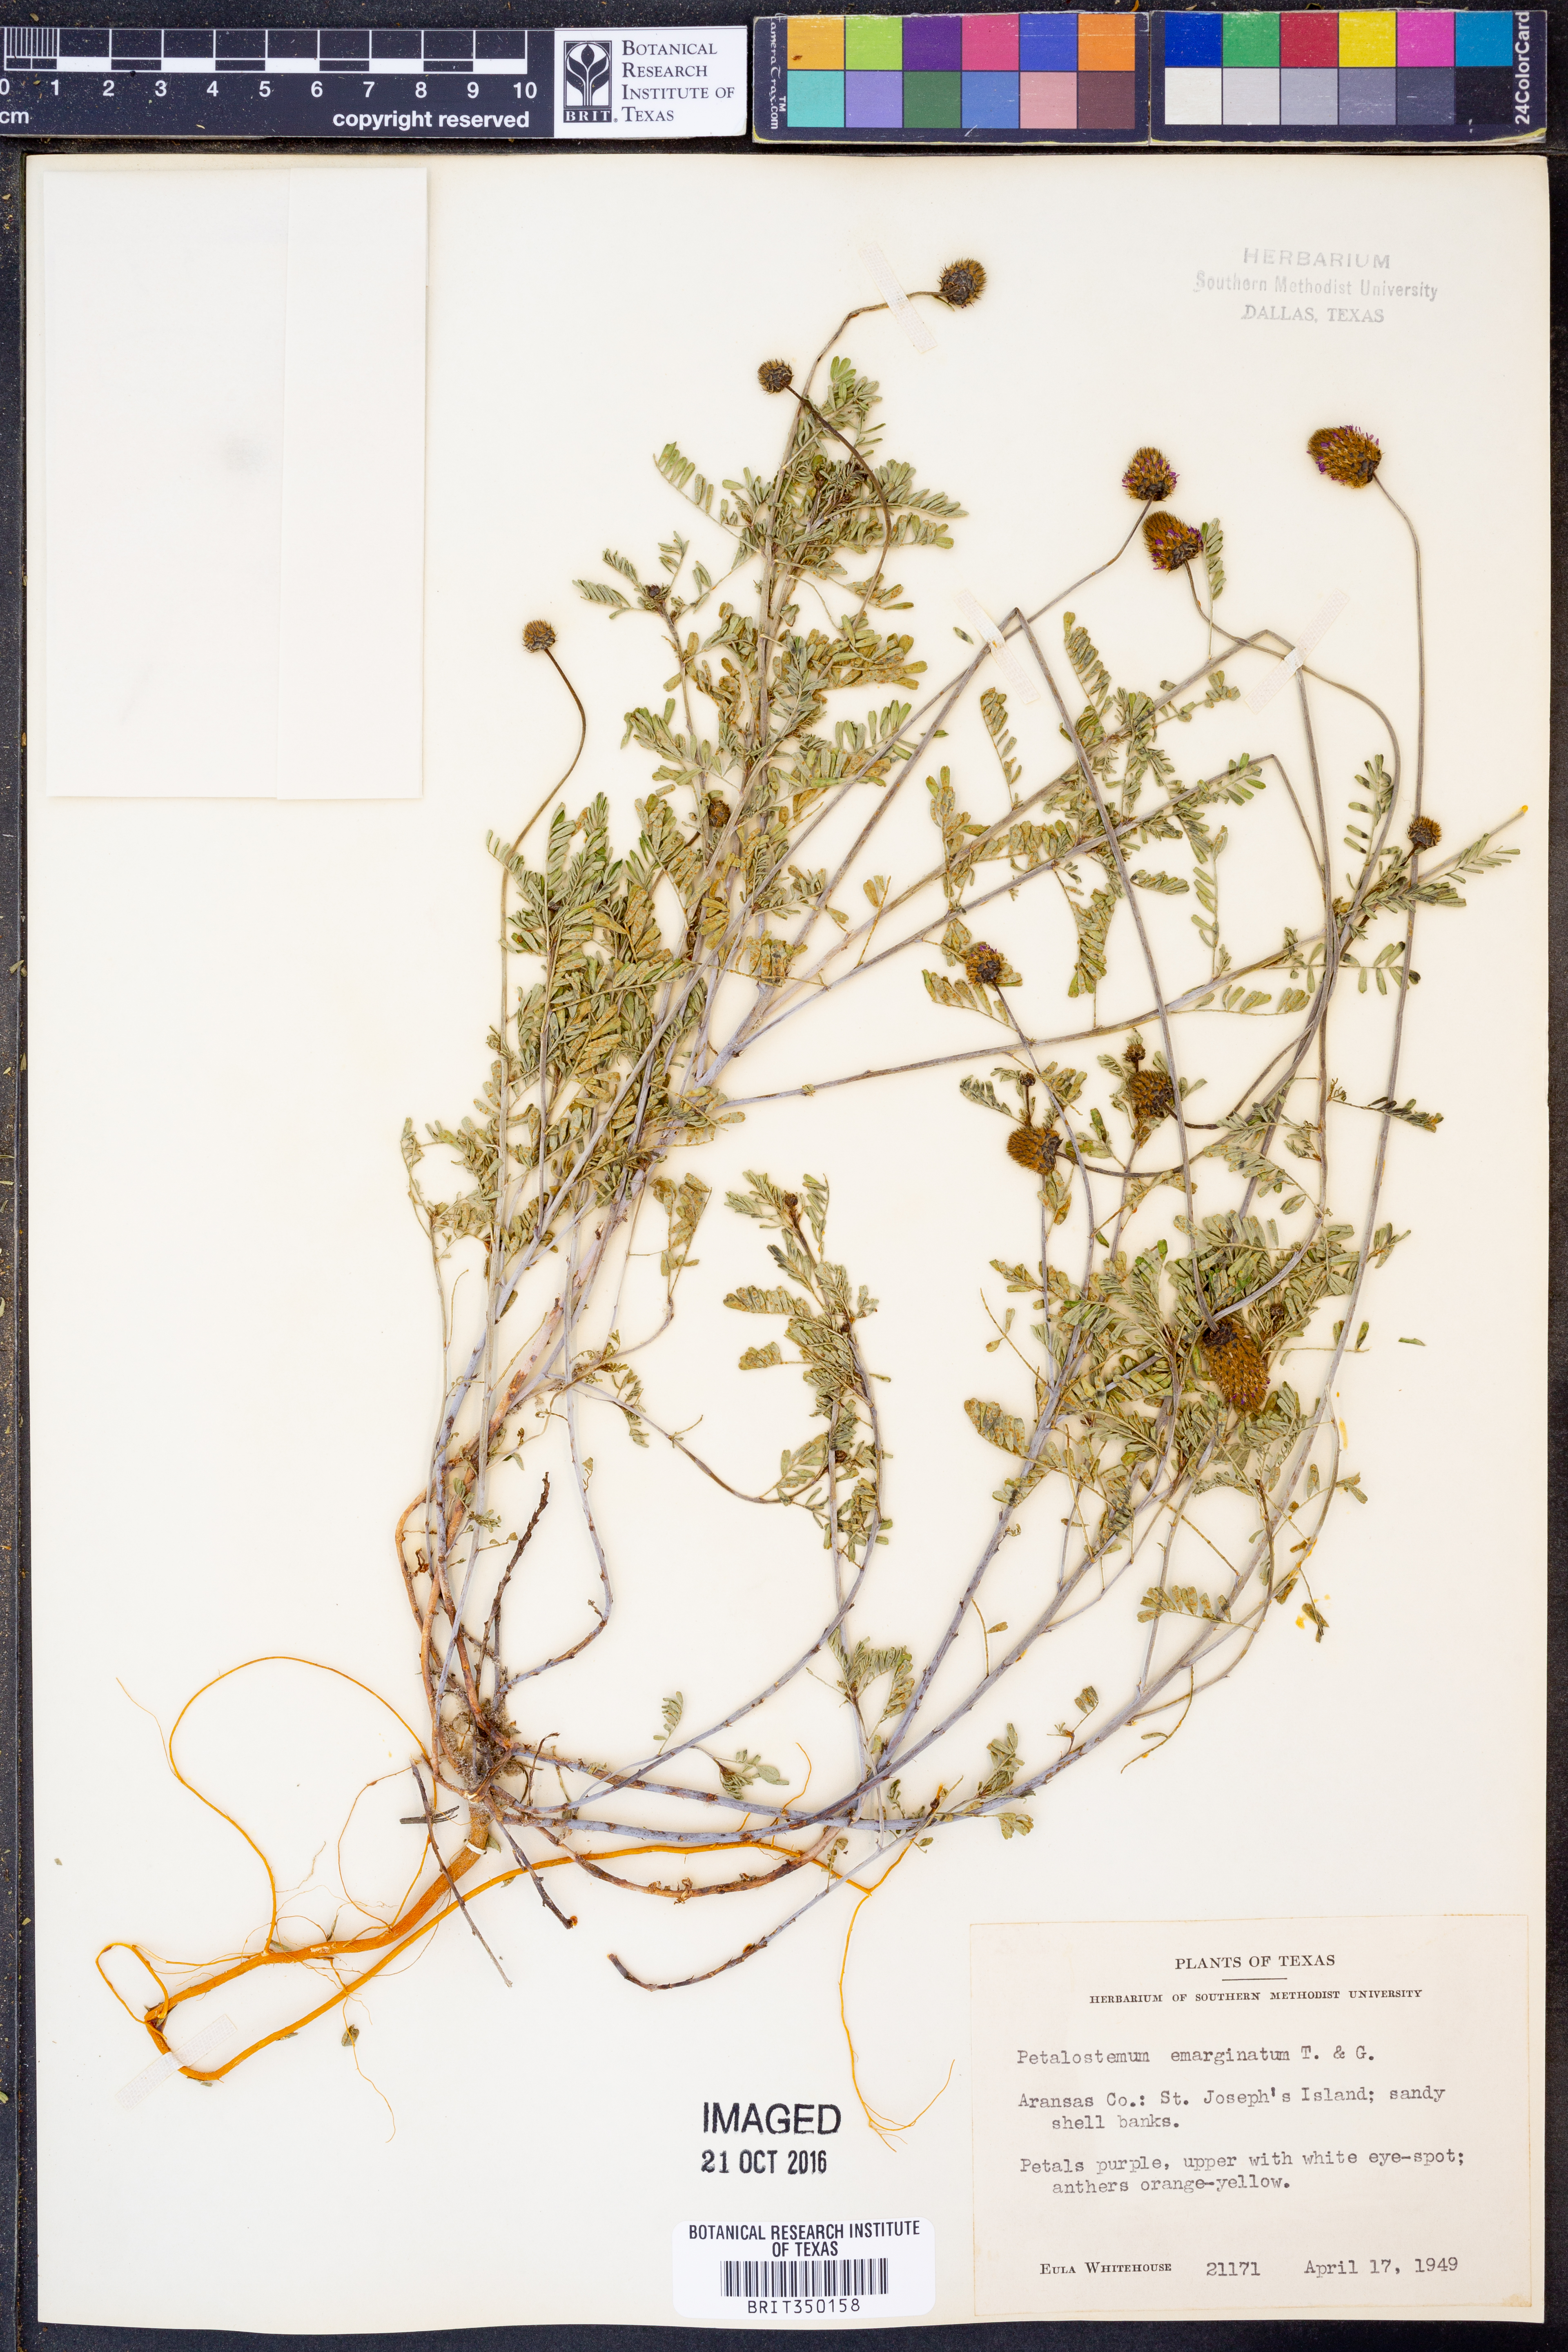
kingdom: Plantae
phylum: Tracheophyta
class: Magnoliopsida
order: Fabales
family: Fabaceae
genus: Dalea
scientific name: Dalea emarginata
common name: Wedgeleaf prairie clover
